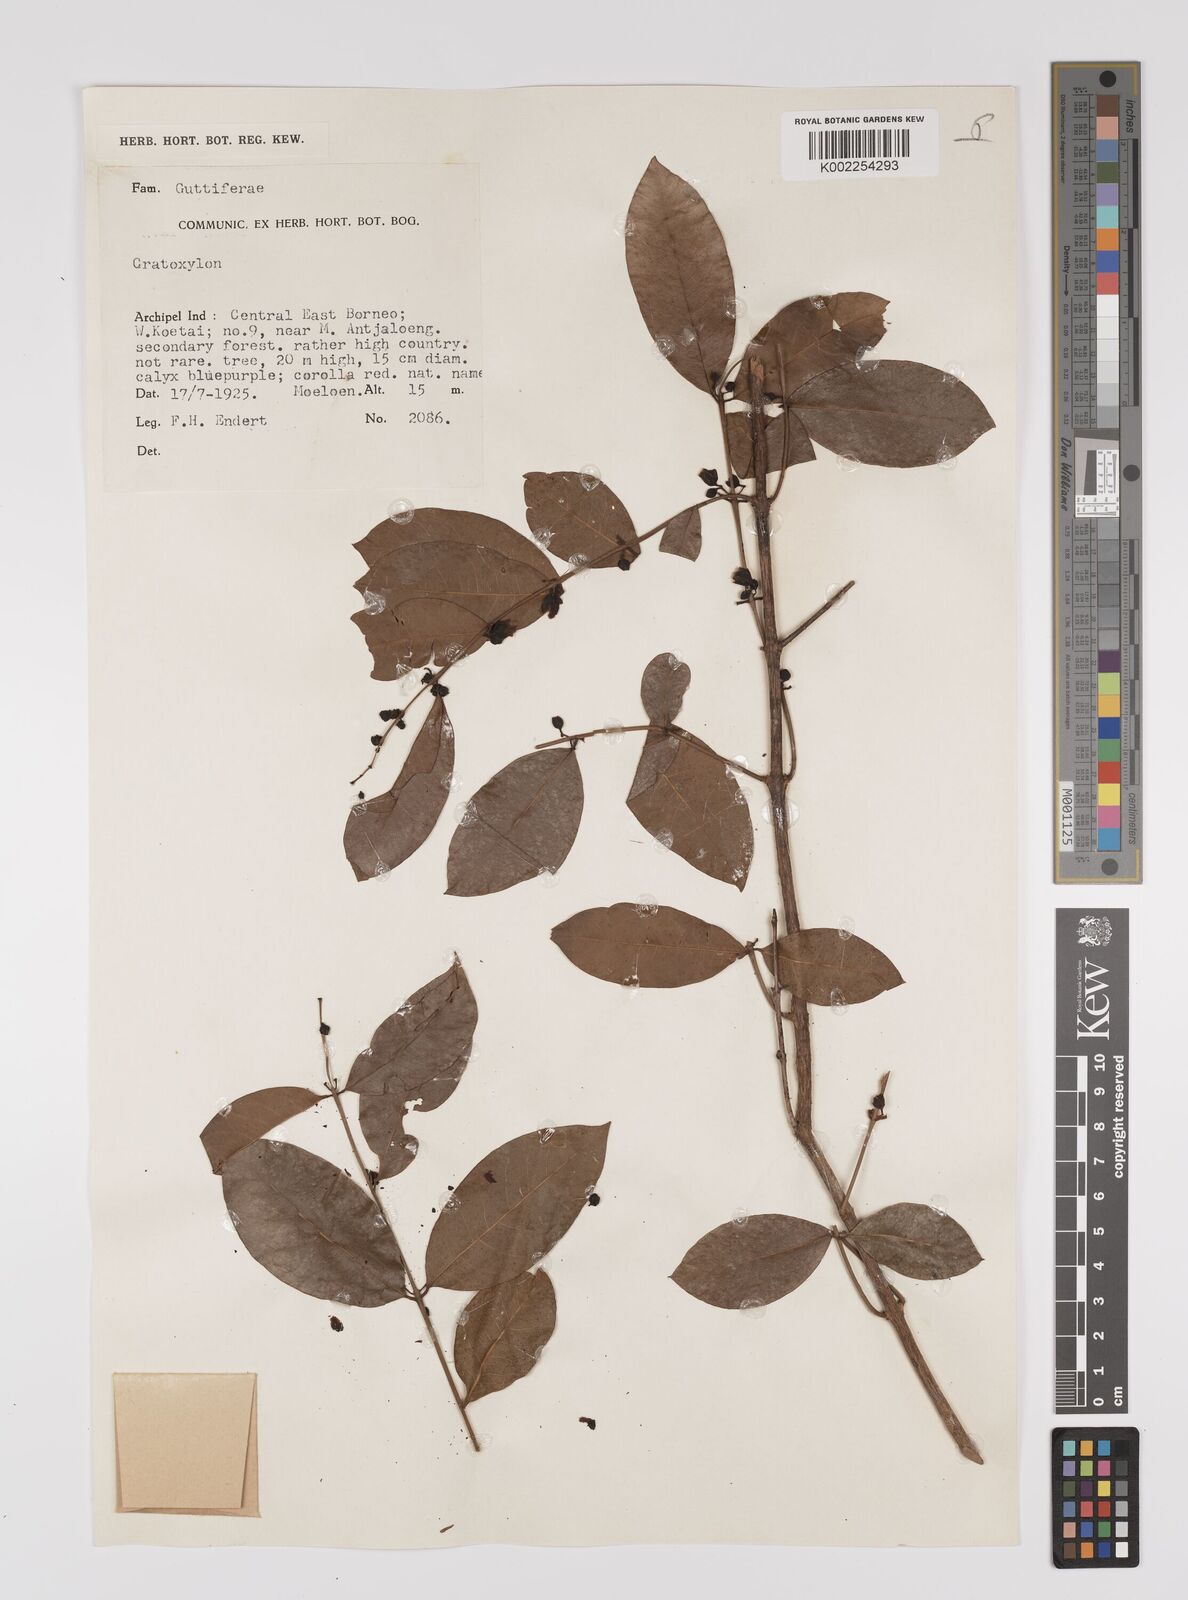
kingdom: Plantae
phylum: Tracheophyta
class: Magnoliopsida
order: Malpighiales
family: Hypericaceae
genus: Cratoxylum
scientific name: Cratoxylum
